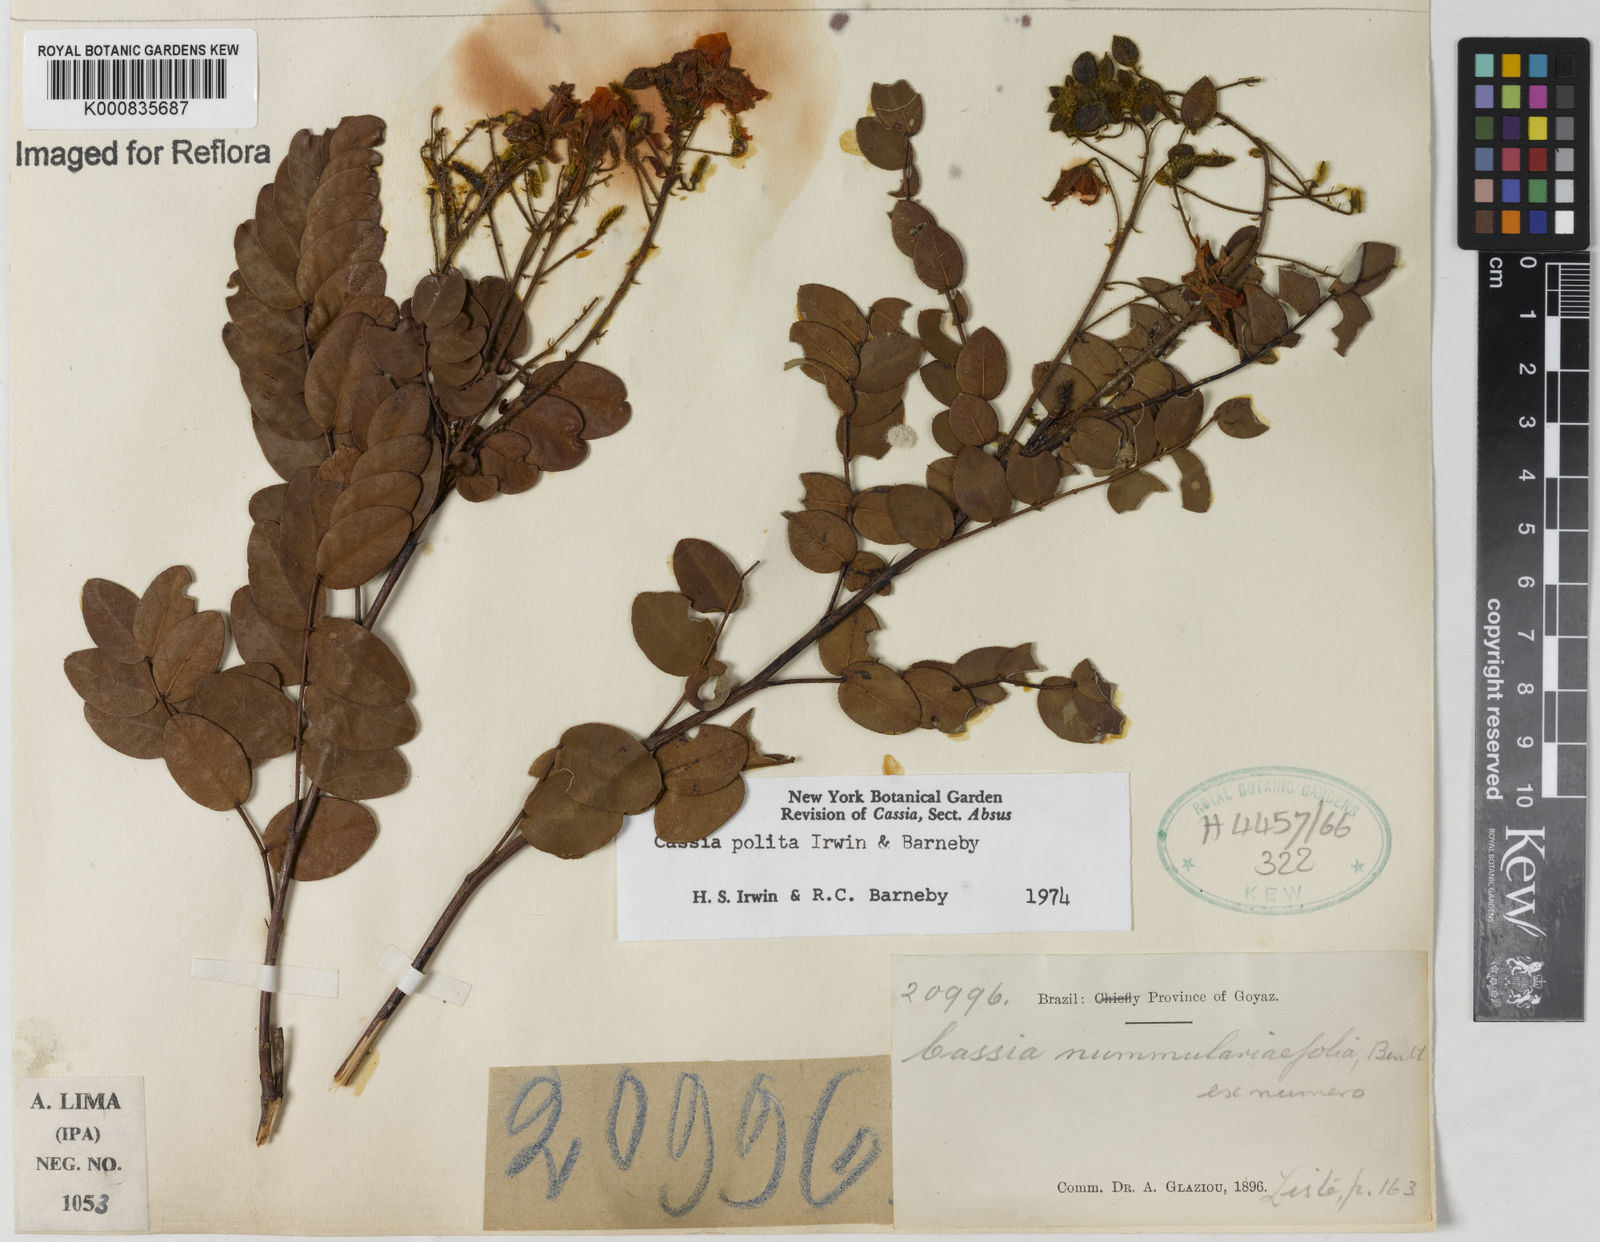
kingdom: Plantae
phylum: Tracheophyta
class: Magnoliopsida
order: Fabales
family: Fabaceae
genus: Chamaecrista
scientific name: Chamaecrista polita
